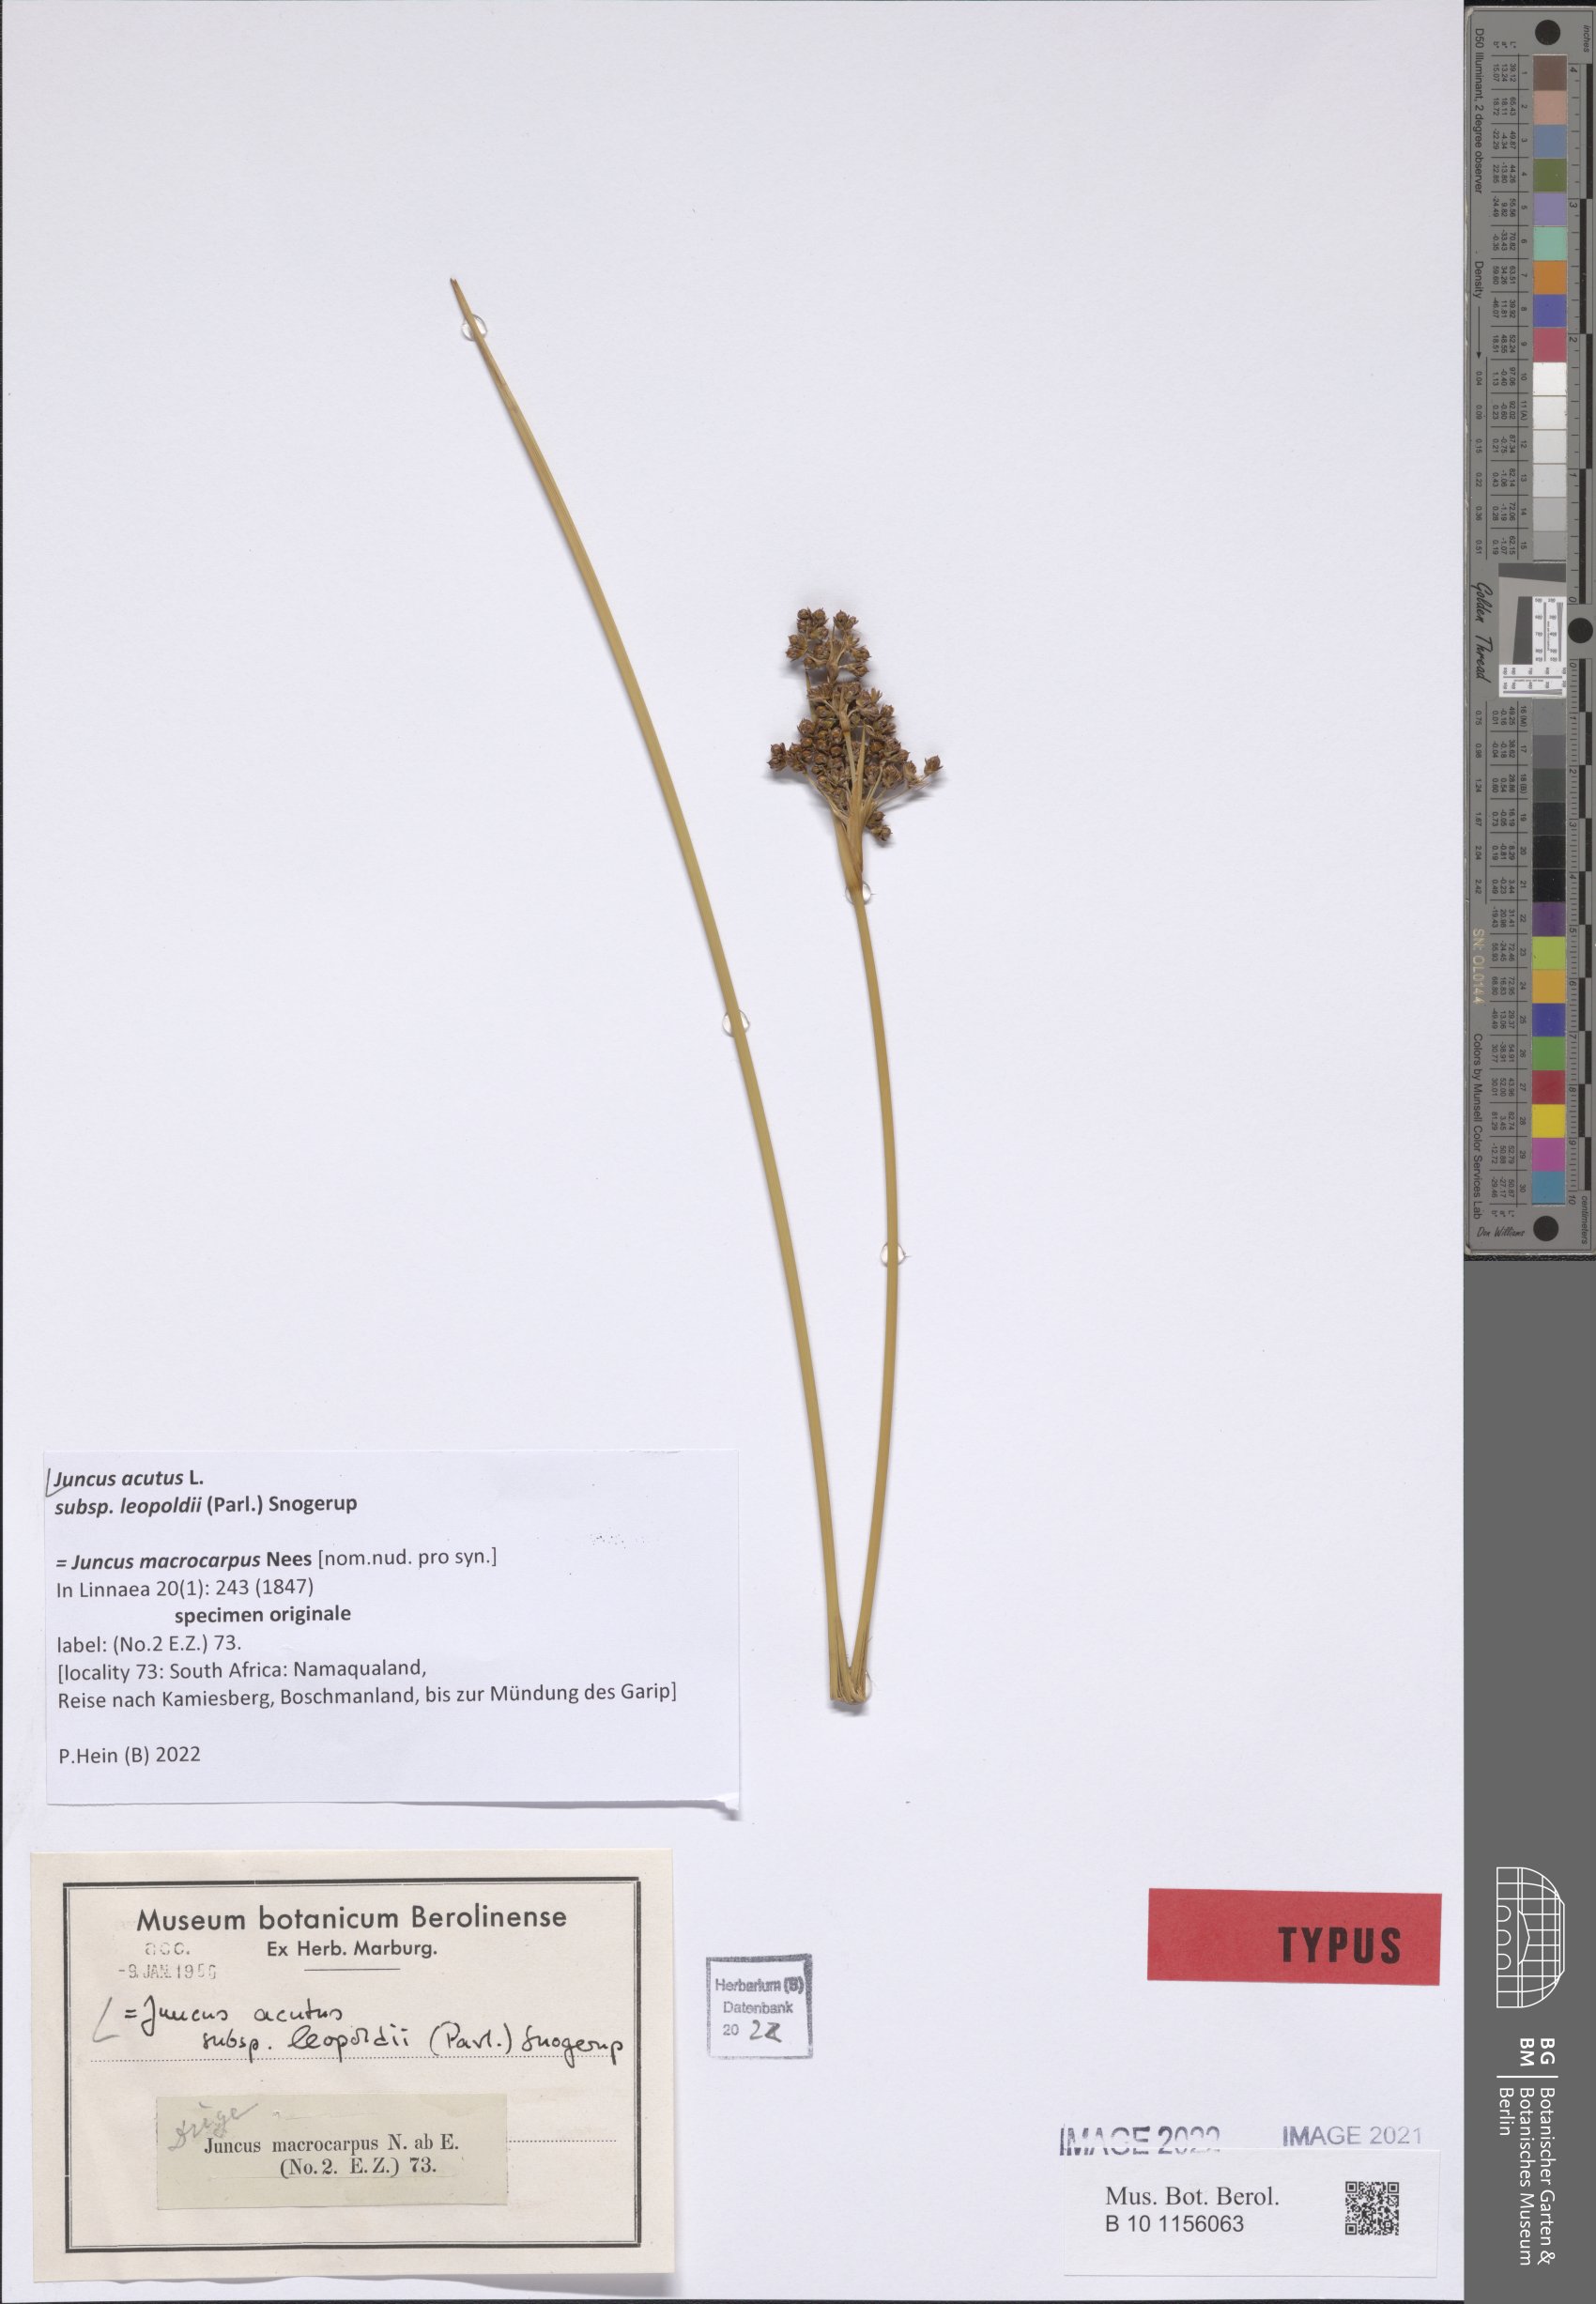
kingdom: Plantae
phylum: Tracheophyta
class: Liliopsida
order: Poales
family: Juncaceae
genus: Juncus
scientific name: Juncus acutus
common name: Sharp rush
